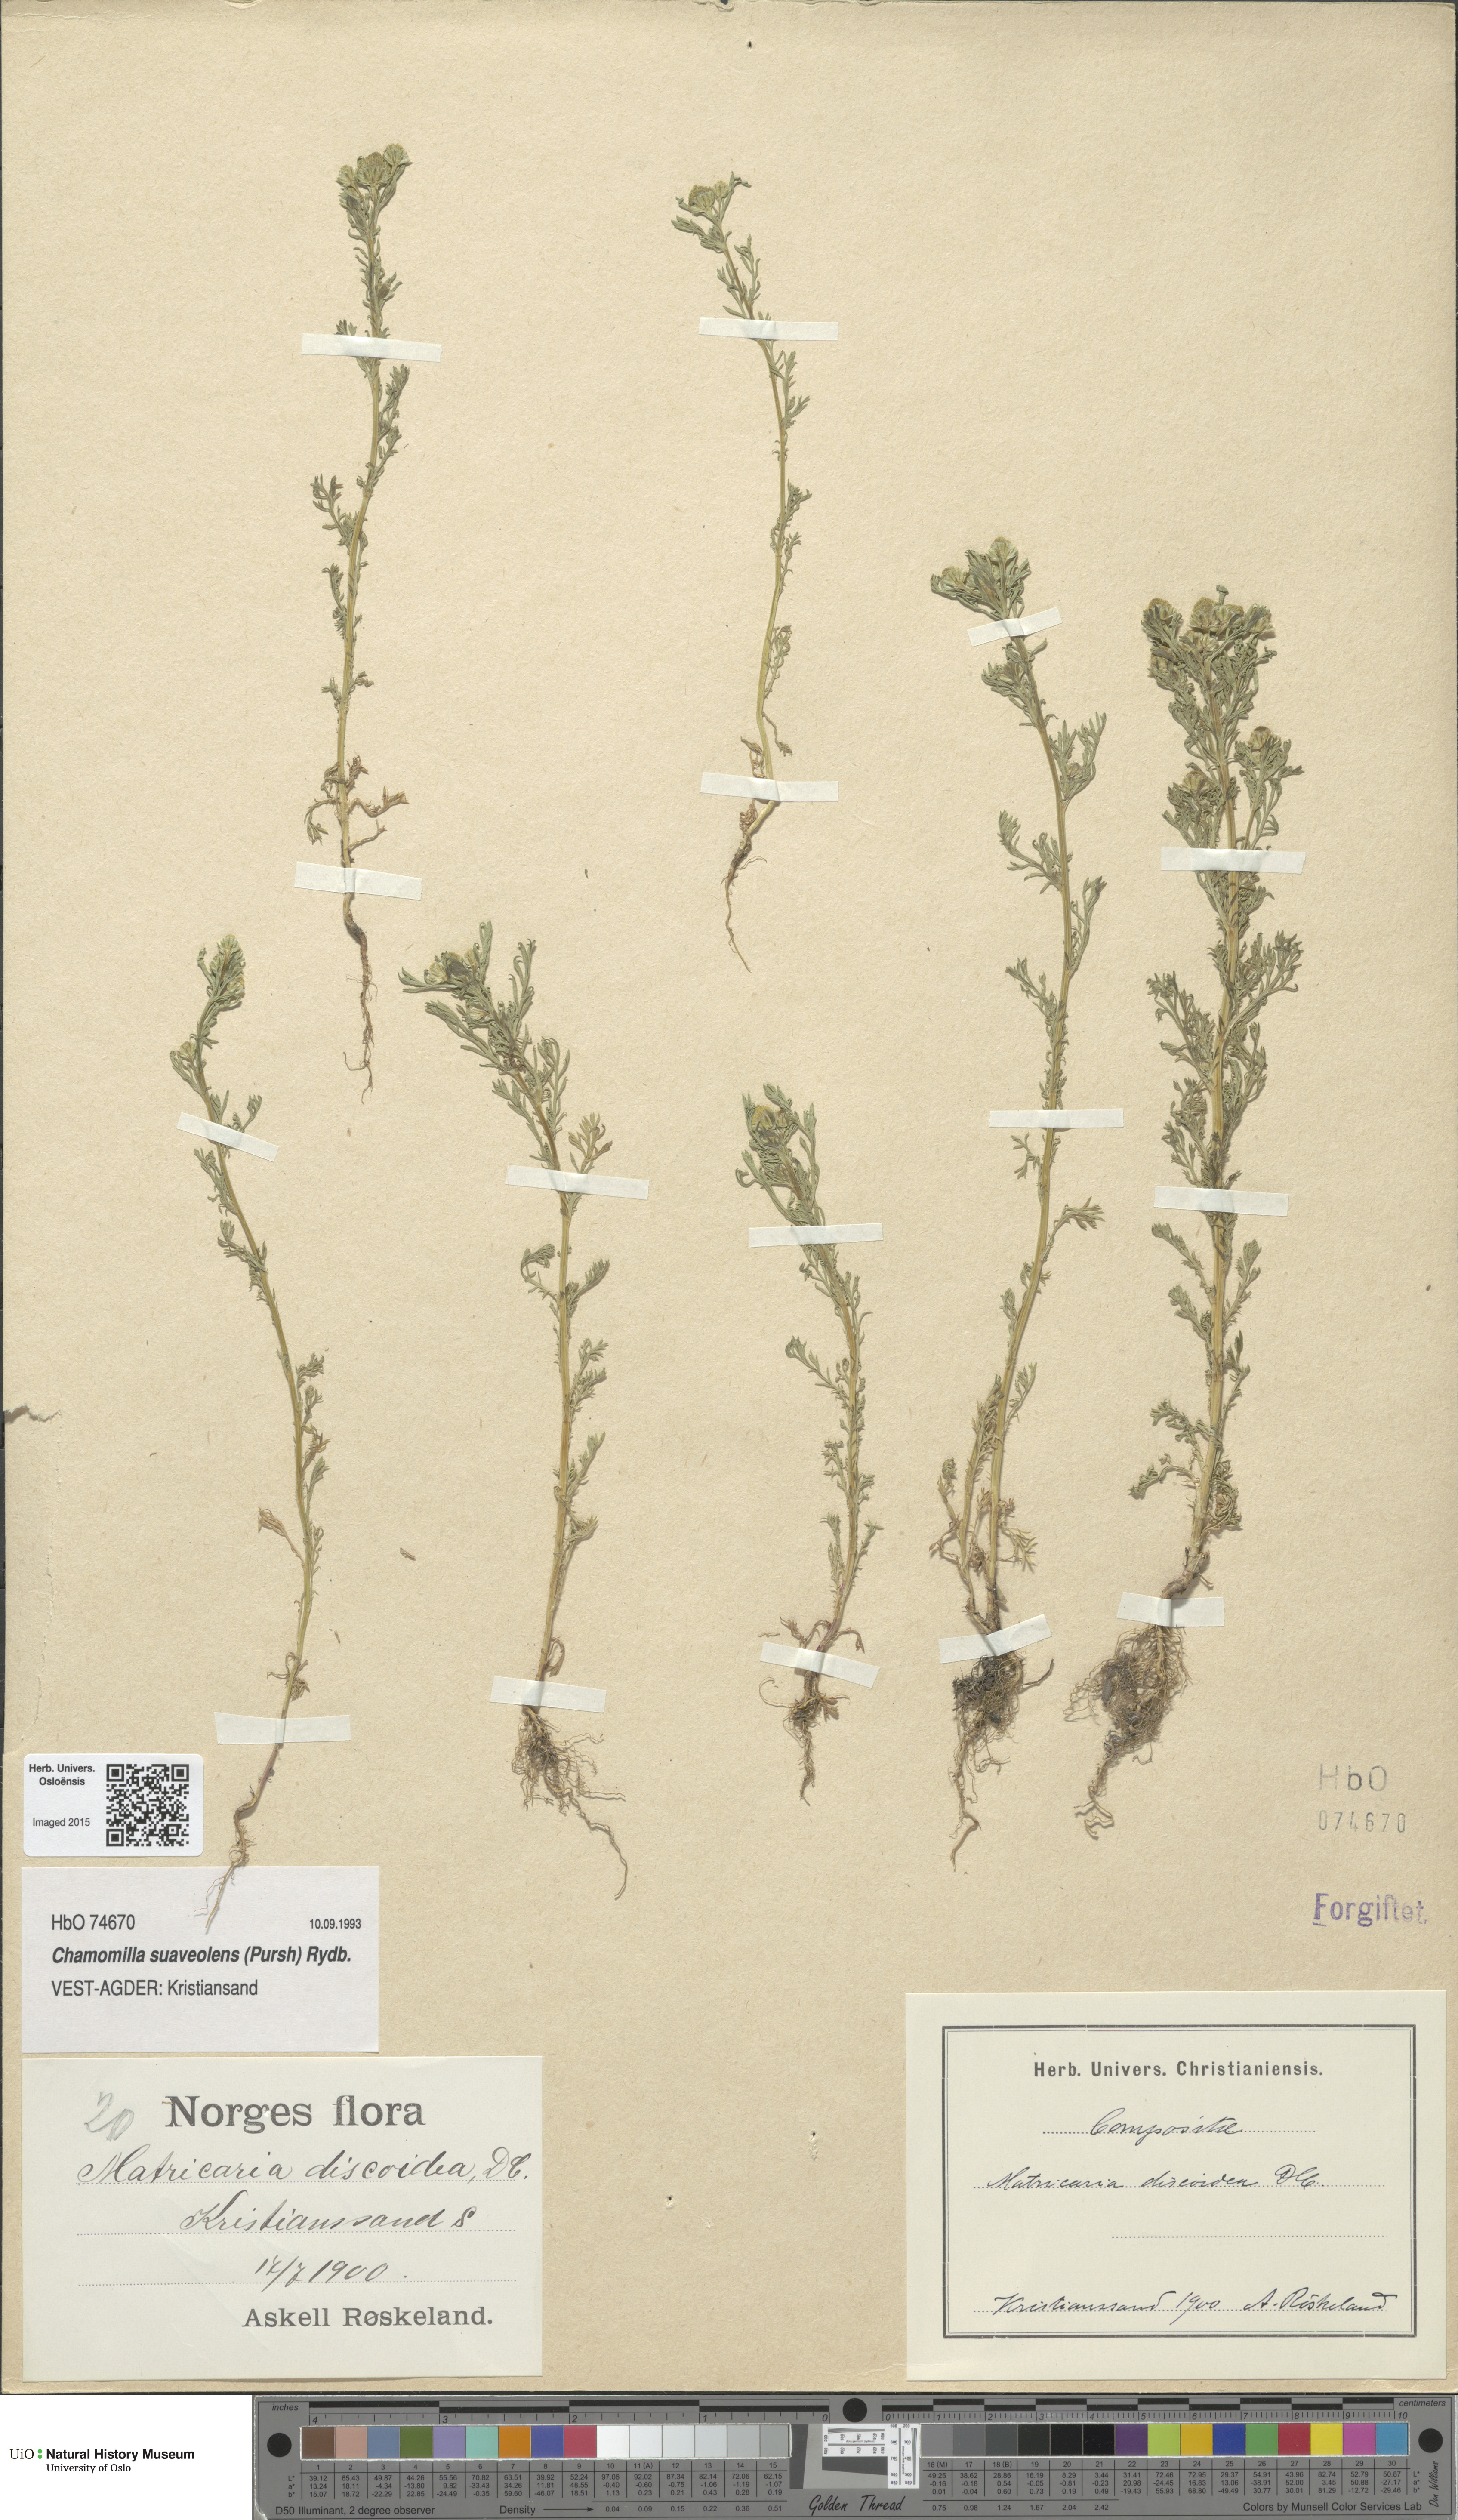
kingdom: Plantae
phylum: Tracheophyta
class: Magnoliopsida
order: Asterales
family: Asteraceae
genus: Matricaria
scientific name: Matricaria discoidea
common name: Disc mayweed
